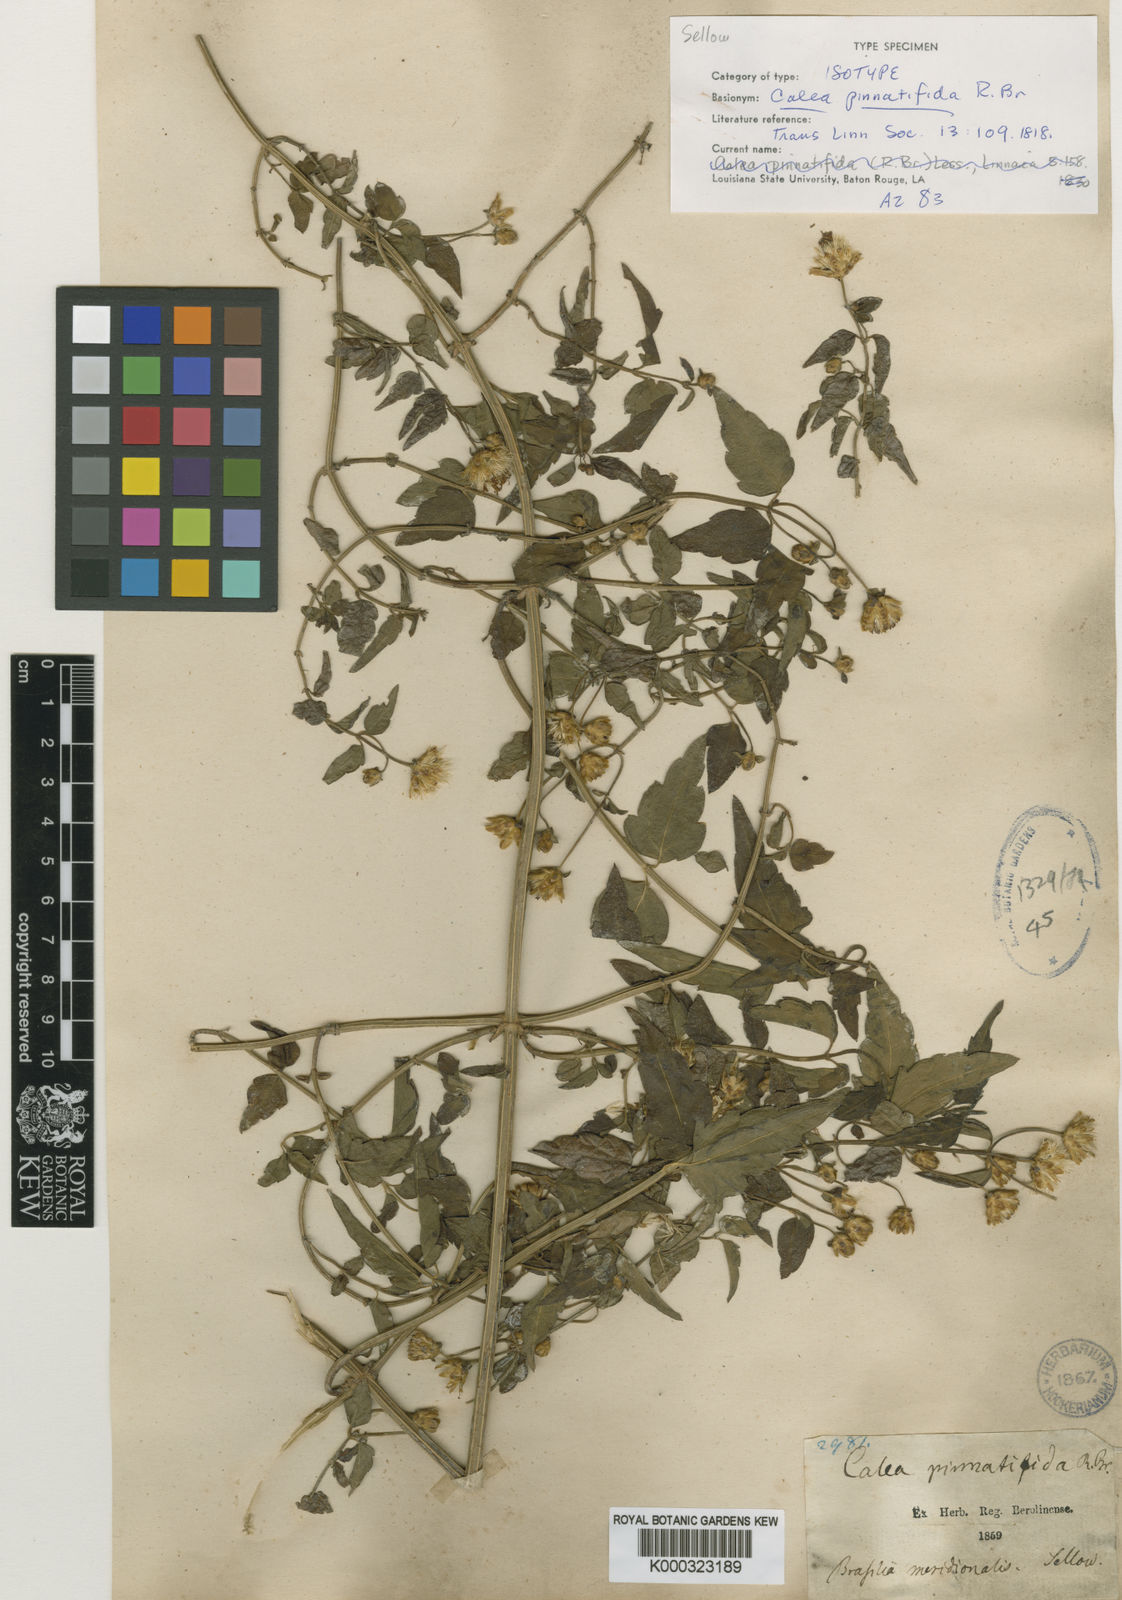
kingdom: Plantae
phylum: Tracheophyta
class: Magnoliopsida
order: Asterales
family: Asteraceae
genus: Calea
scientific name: Calea
